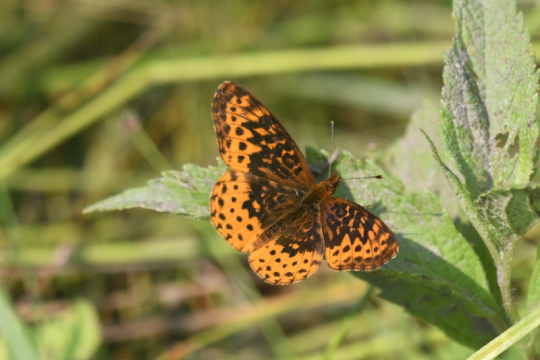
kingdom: Animalia
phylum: Arthropoda
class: Insecta
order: Lepidoptera
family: Nymphalidae
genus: Clossiana
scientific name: Clossiana toddi
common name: Meadow Fritillary
